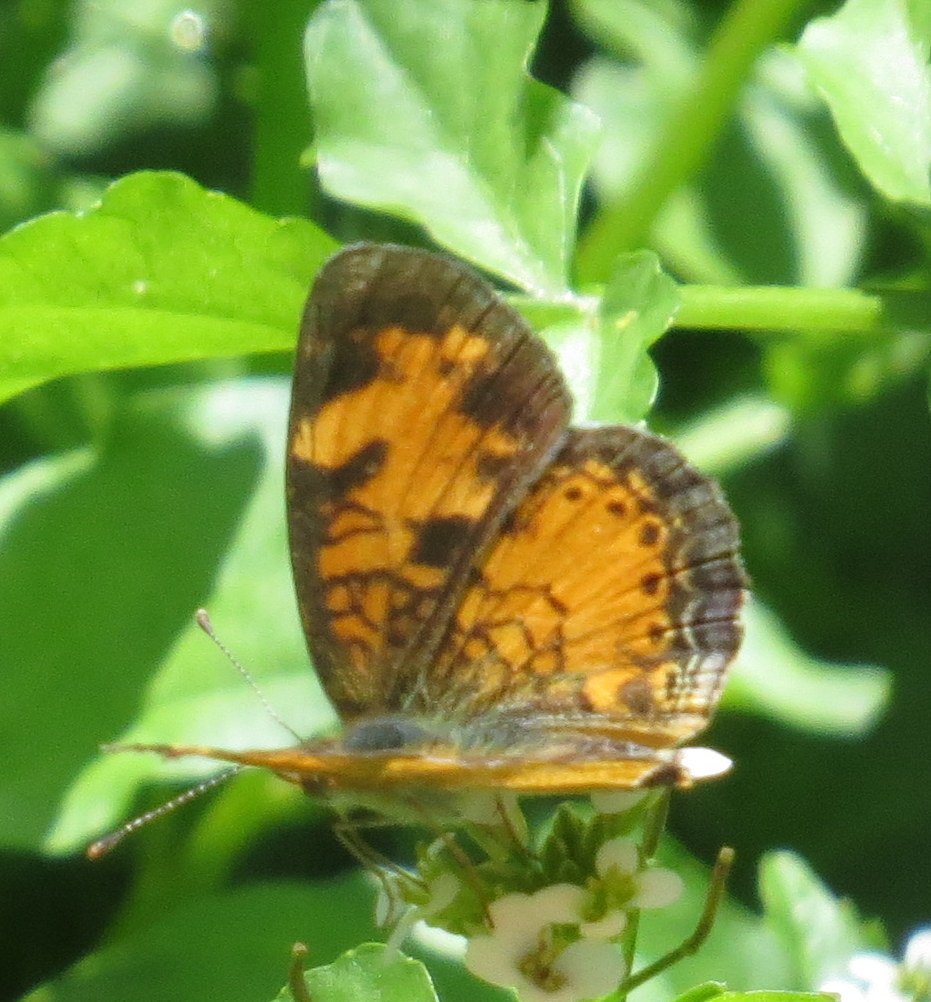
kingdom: Animalia
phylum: Arthropoda
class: Insecta
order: Lepidoptera
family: Nymphalidae
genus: Phyciodes
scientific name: Phyciodes tharos
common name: Northern Crescent
